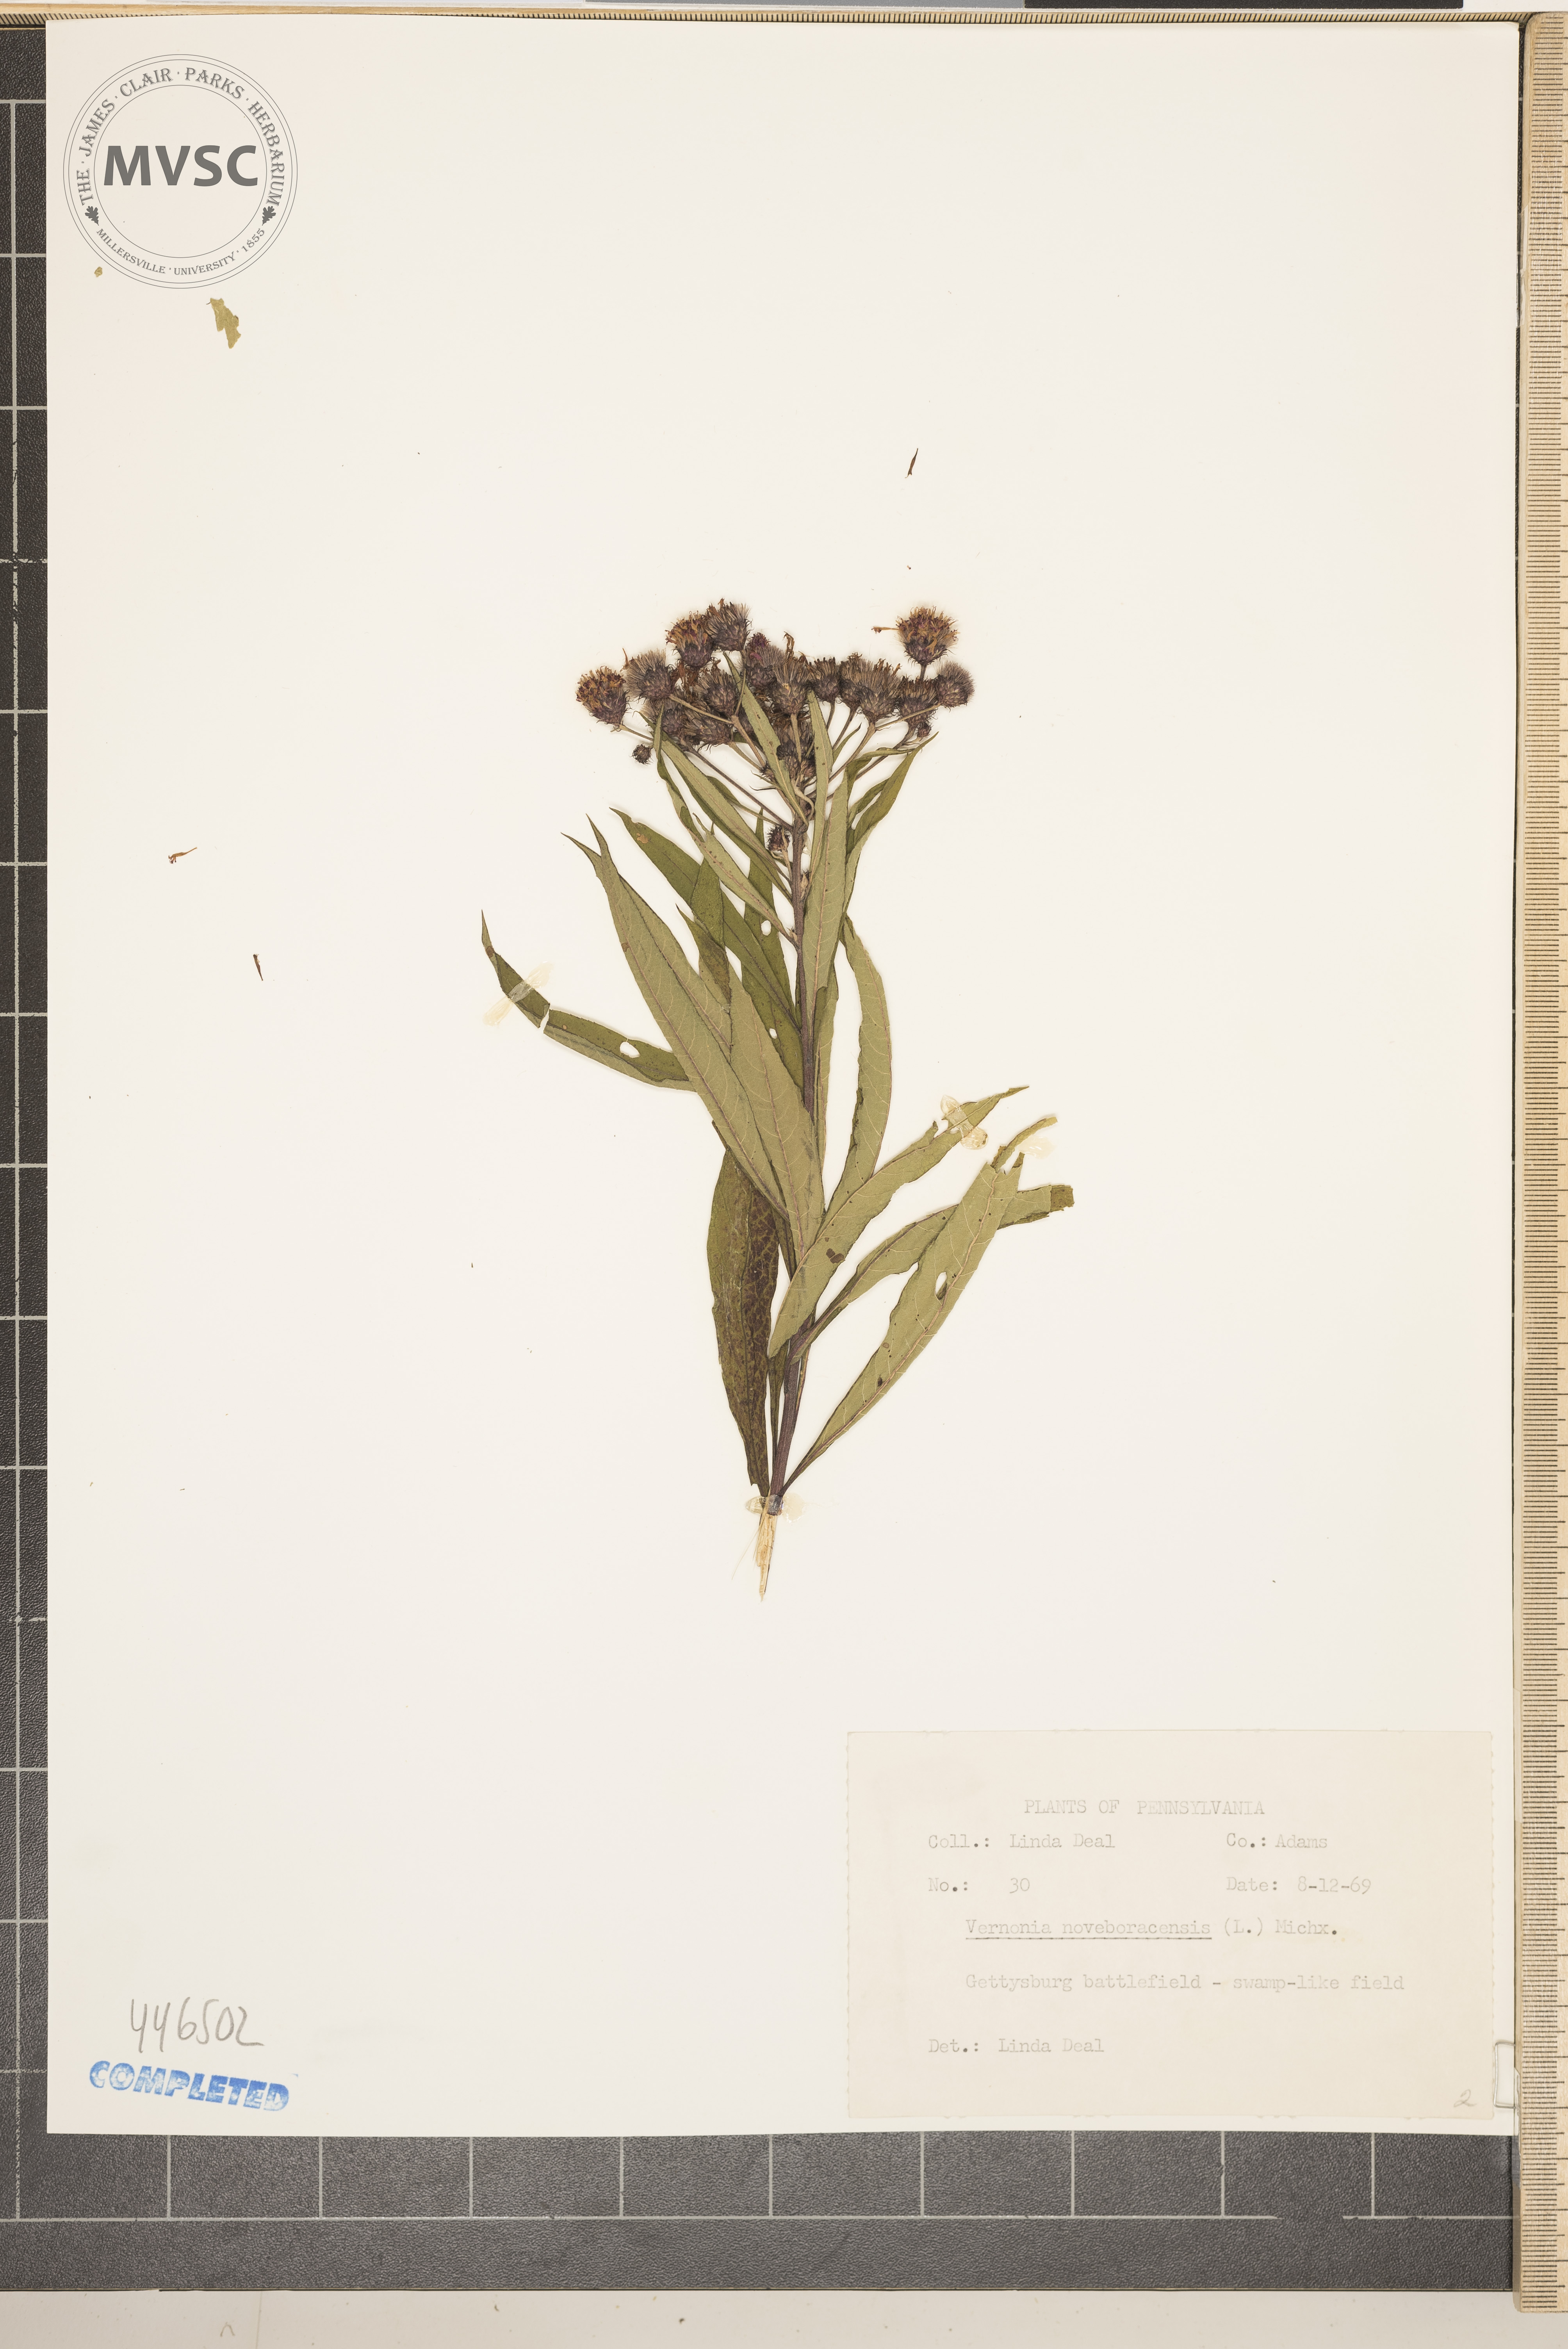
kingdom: Plantae
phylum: Tracheophyta
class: Magnoliopsida
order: Asterales
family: Asteraceae
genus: Vernonia
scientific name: Vernonia noveboracensis
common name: New york ironweed
